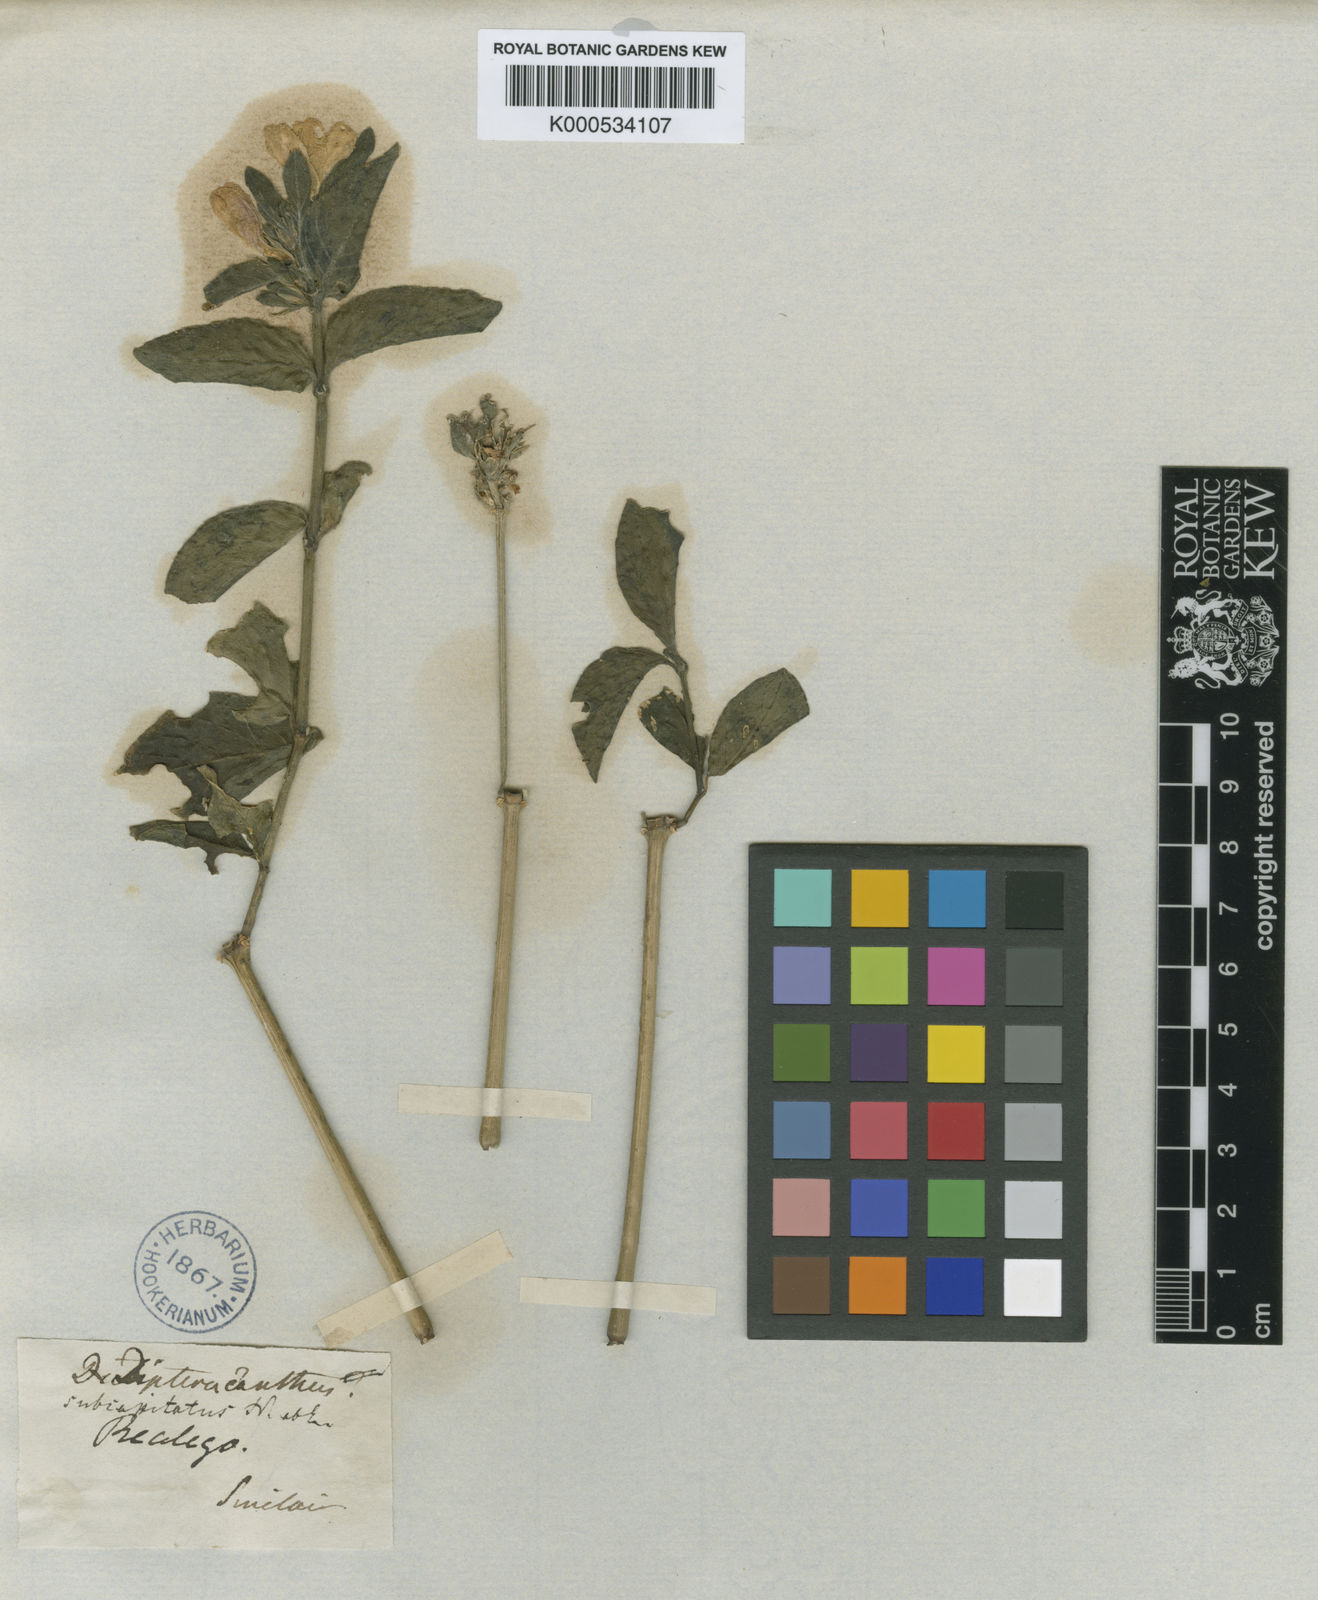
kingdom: Plantae
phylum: Tracheophyta
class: Magnoliopsida
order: Lamiales
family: Acanthaceae
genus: Ruellia
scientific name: Ruellia tetragona
